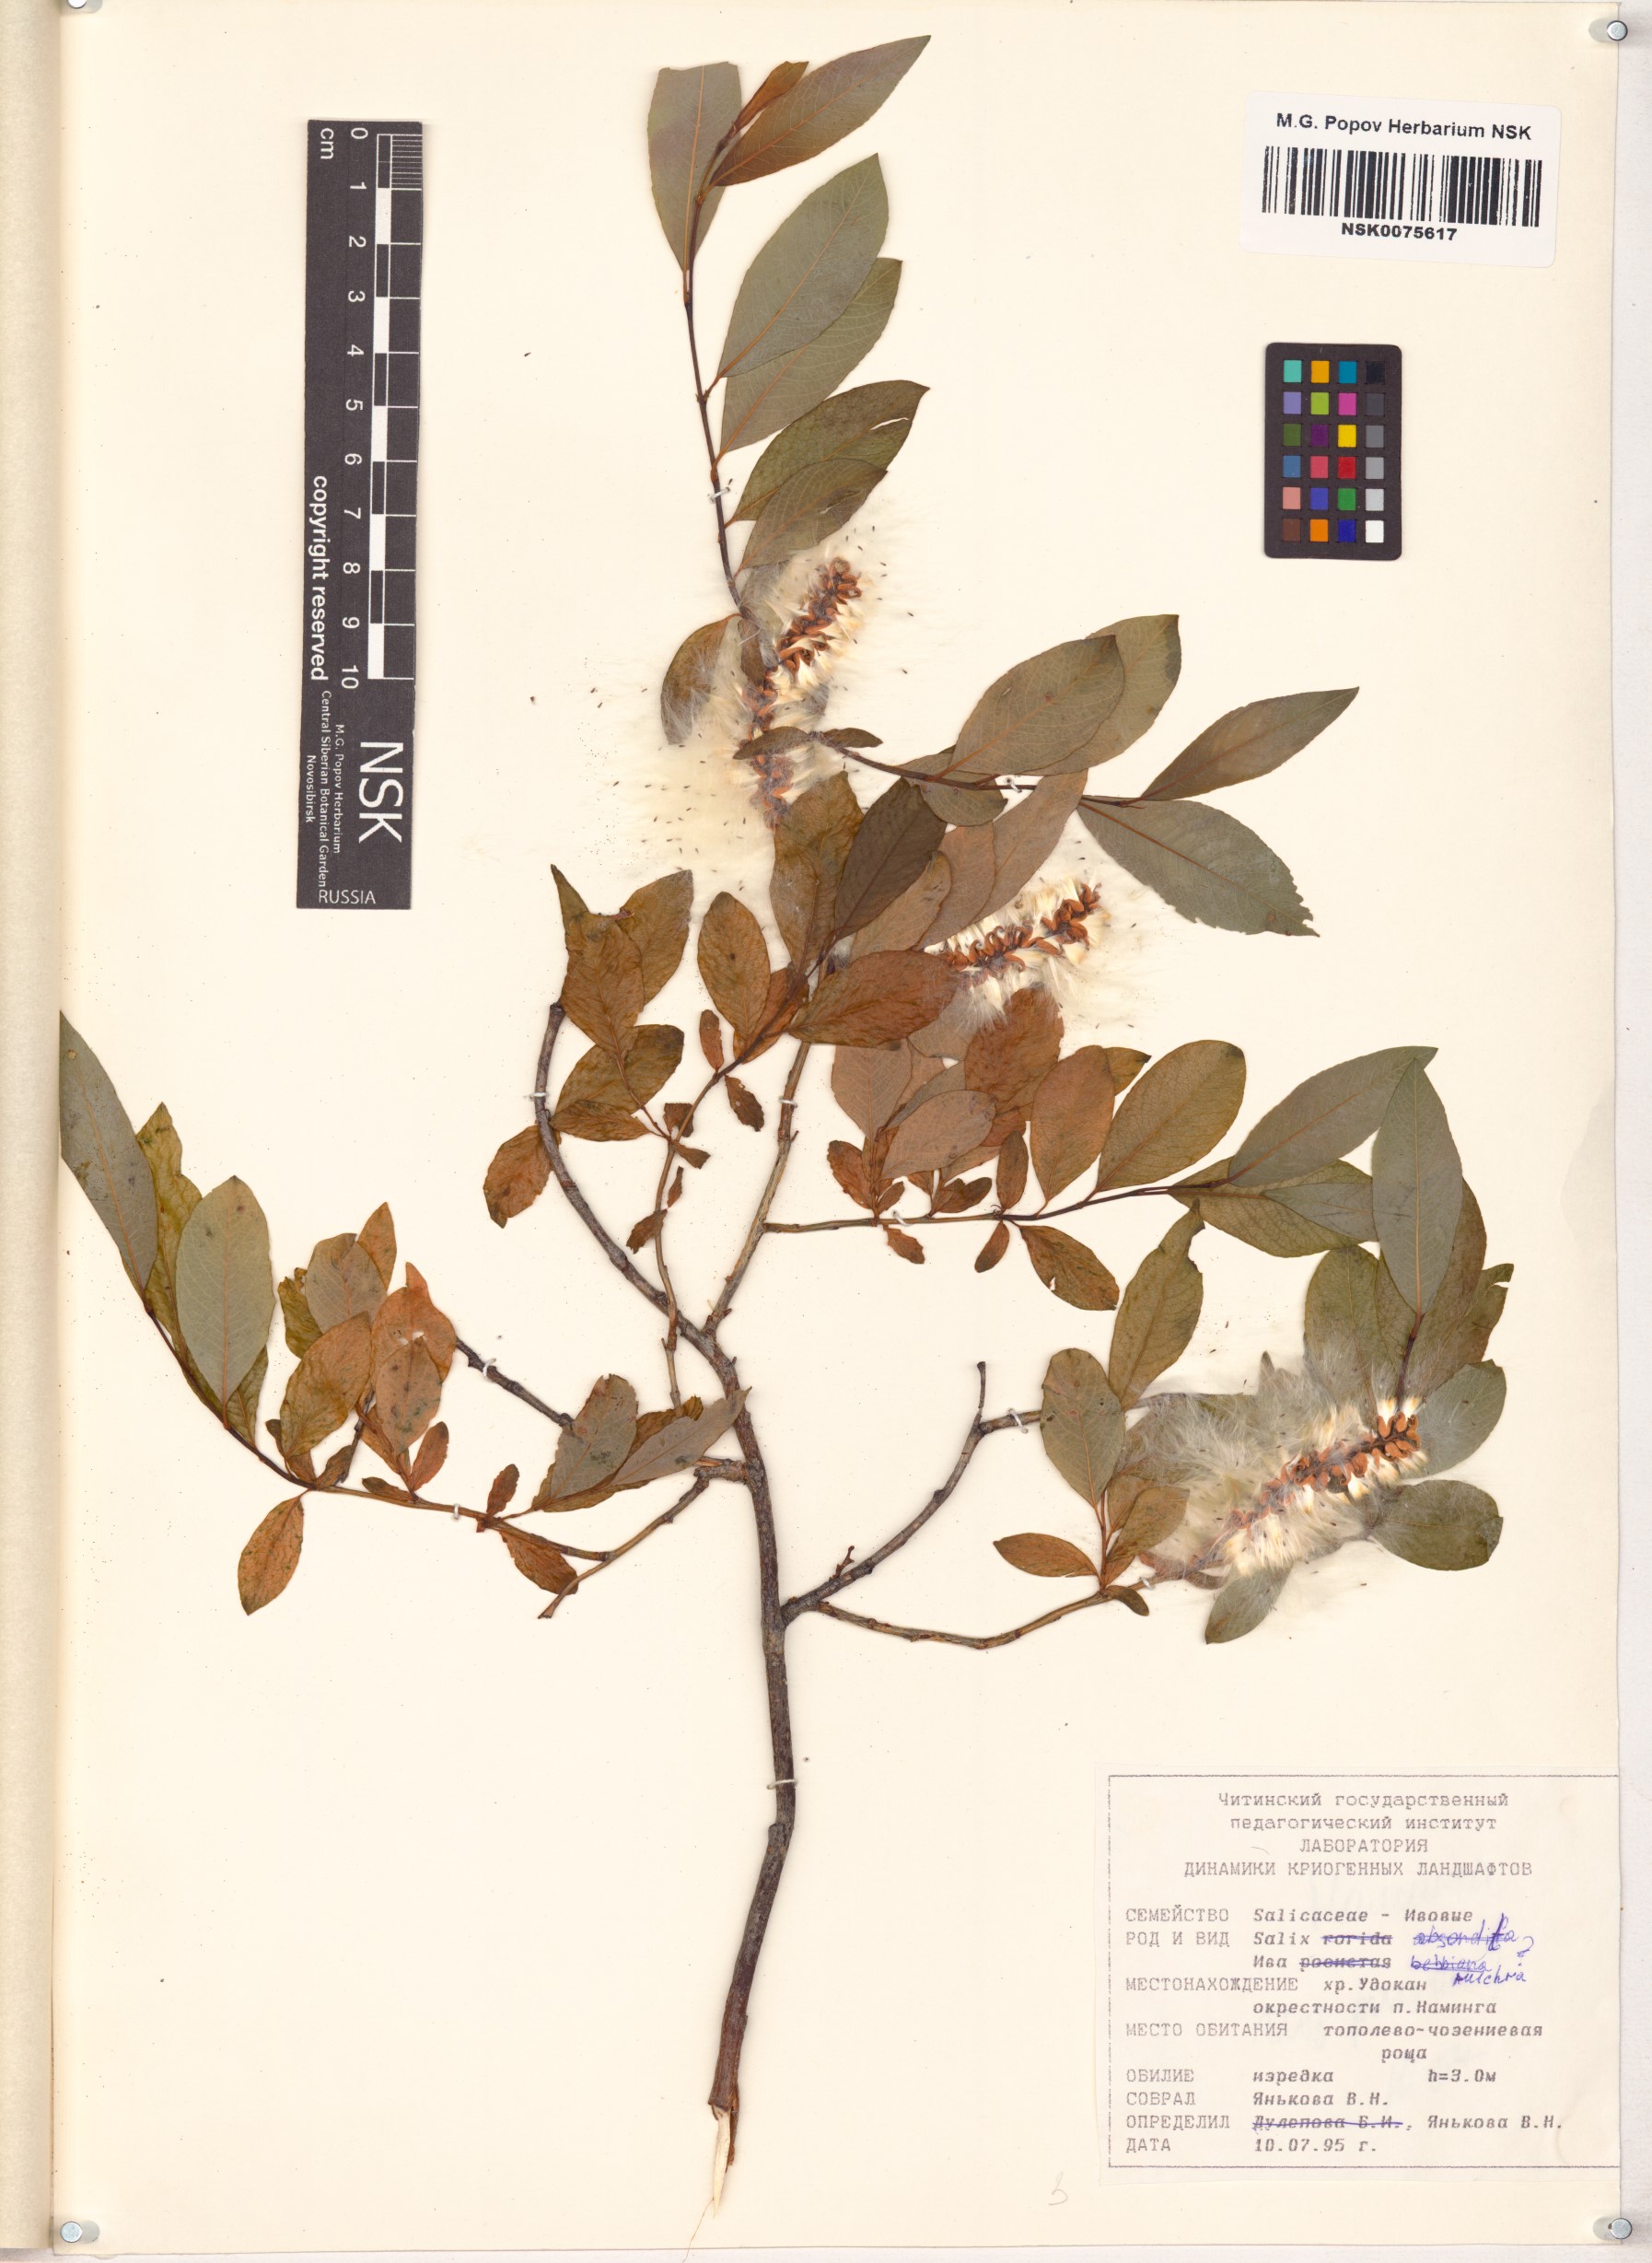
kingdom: Plantae
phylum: Tracheophyta
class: Magnoliopsida
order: Malpighiales
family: Salicaceae
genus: Salix
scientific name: Salix pulchra
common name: Diamond-leaved willow
